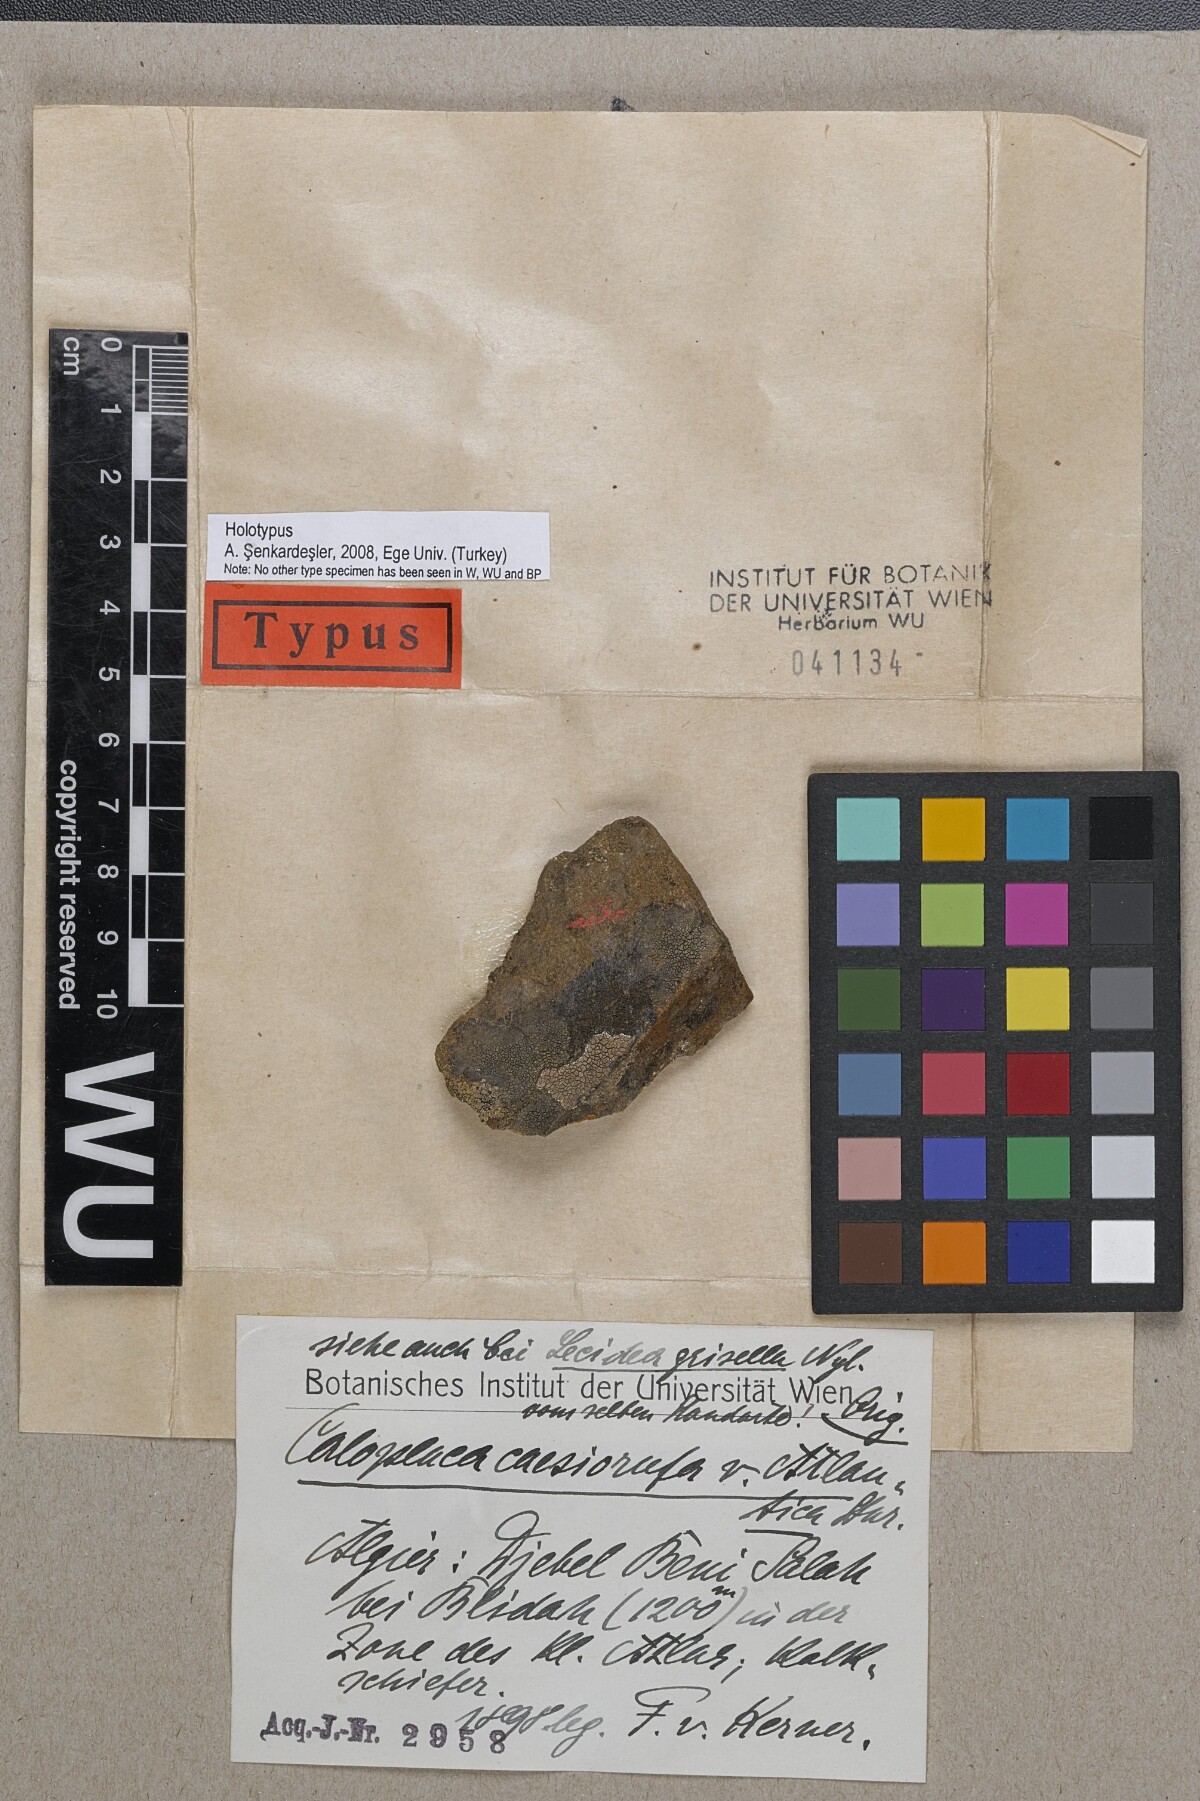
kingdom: Fungi
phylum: Ascomycota
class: Lecanoromycetes
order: Teloschistales
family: Teloschistaceae
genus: Caloplaca
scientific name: Caloplaca caesiorufa
